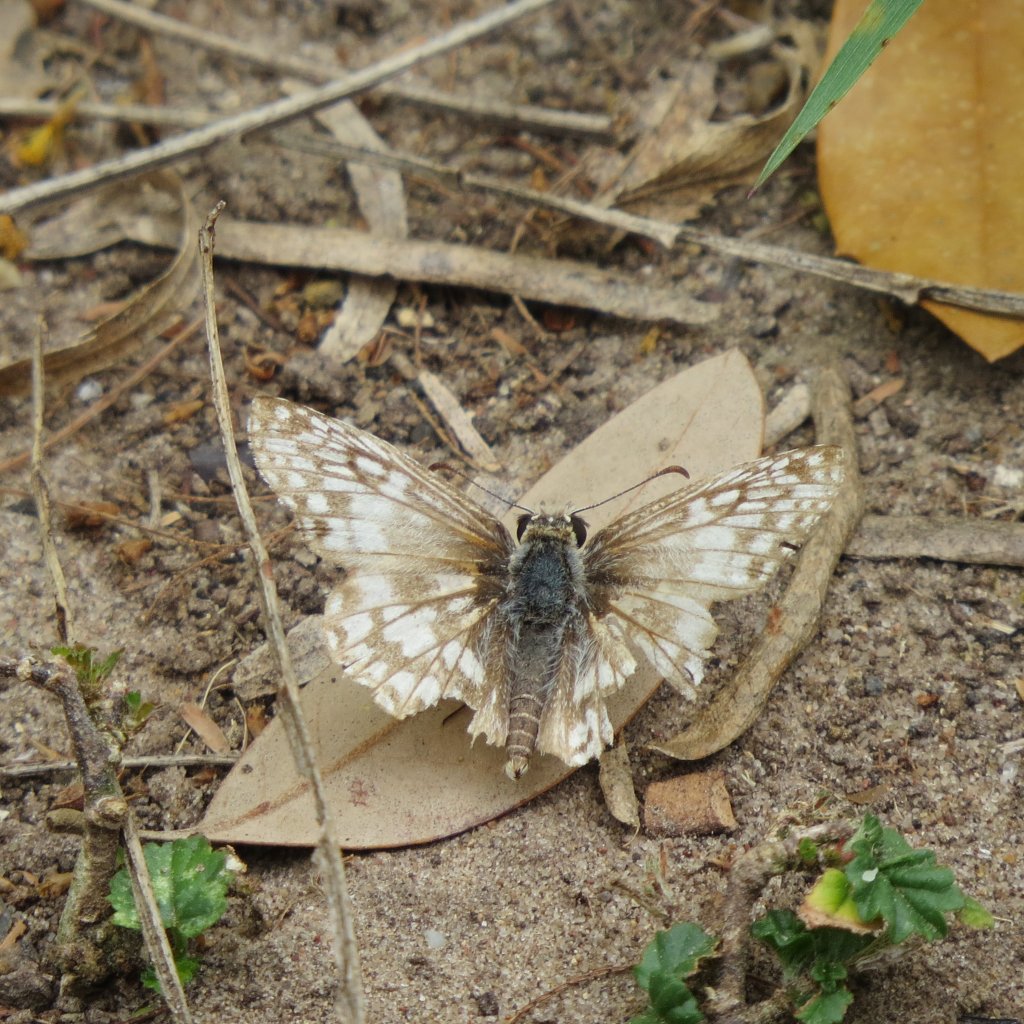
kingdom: Animalia
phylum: Arthropoda
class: Insecta
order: Lepidoptera
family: Hesperiidae
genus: Pyrgus
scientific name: Pyrgus oileus
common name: Tropical Checkered-Skipper
